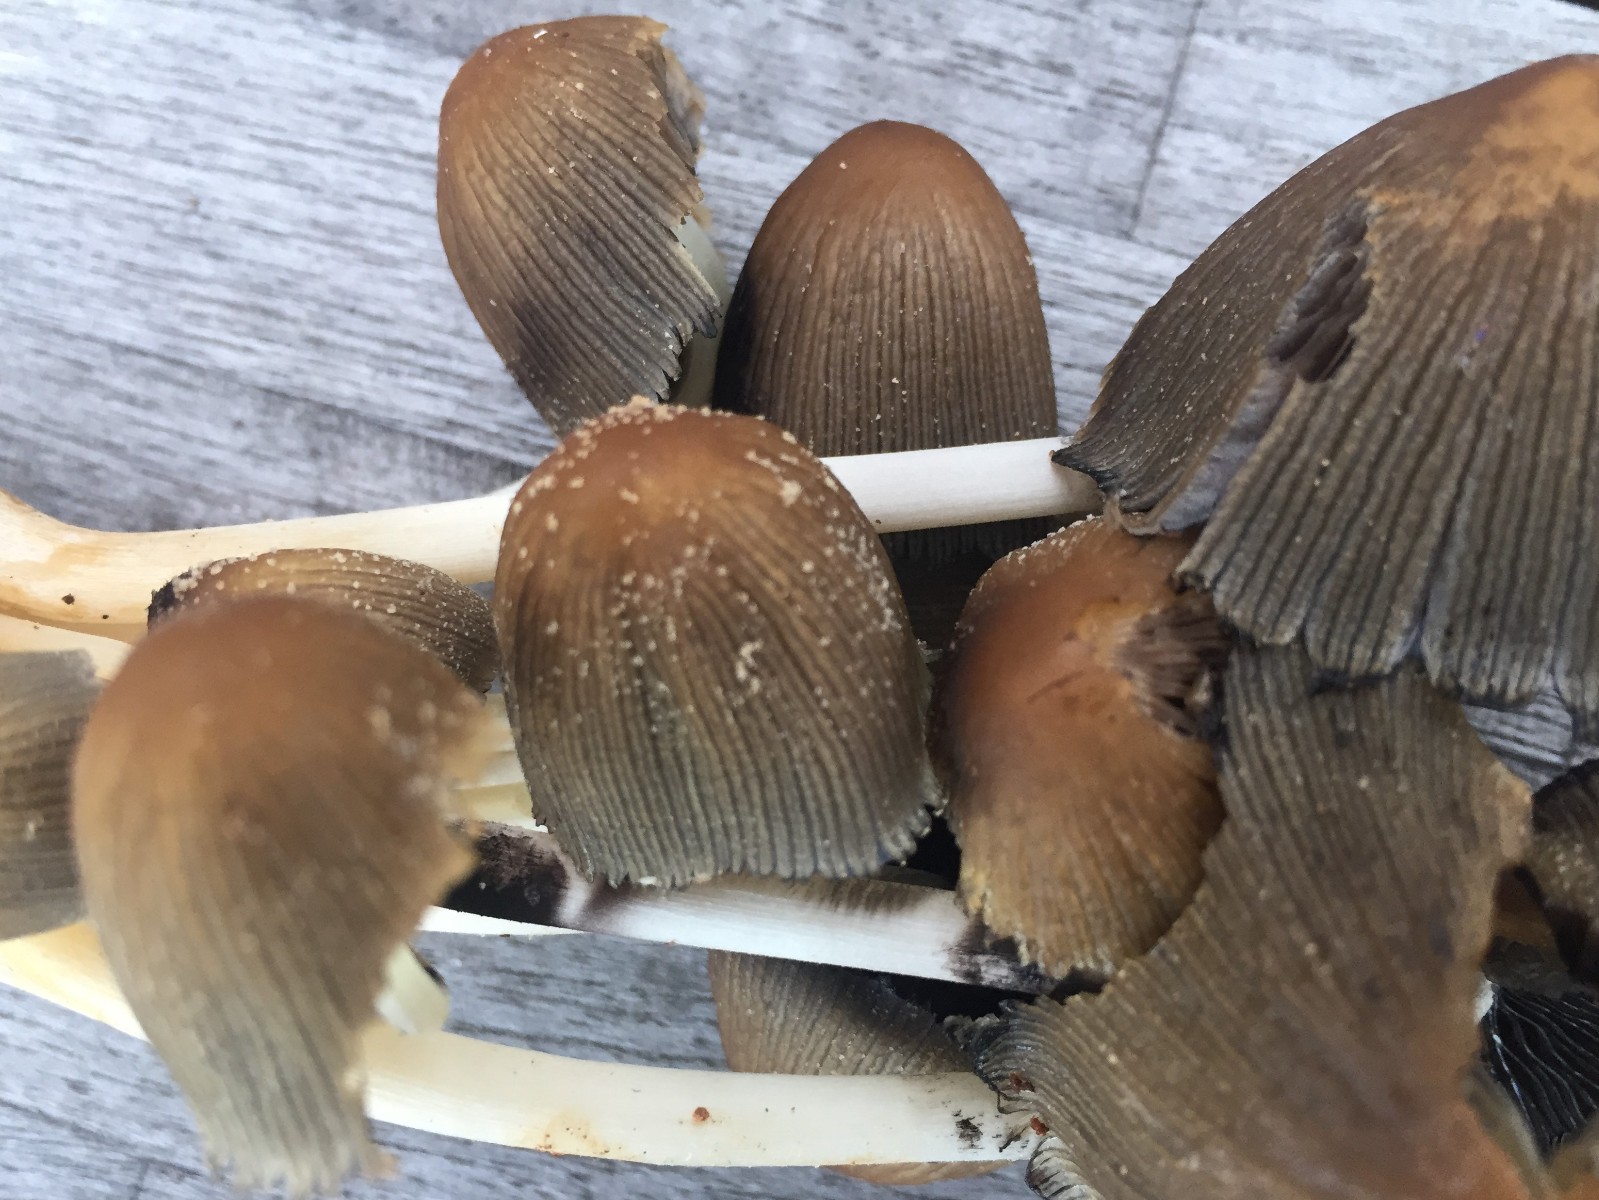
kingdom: Fungi
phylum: Basidiomycota
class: Agaricomycetes
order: Agaricales
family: Psathyrellaceae
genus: Coprinellus
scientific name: Coprinellus micaceus
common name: glimmer-blækhat
